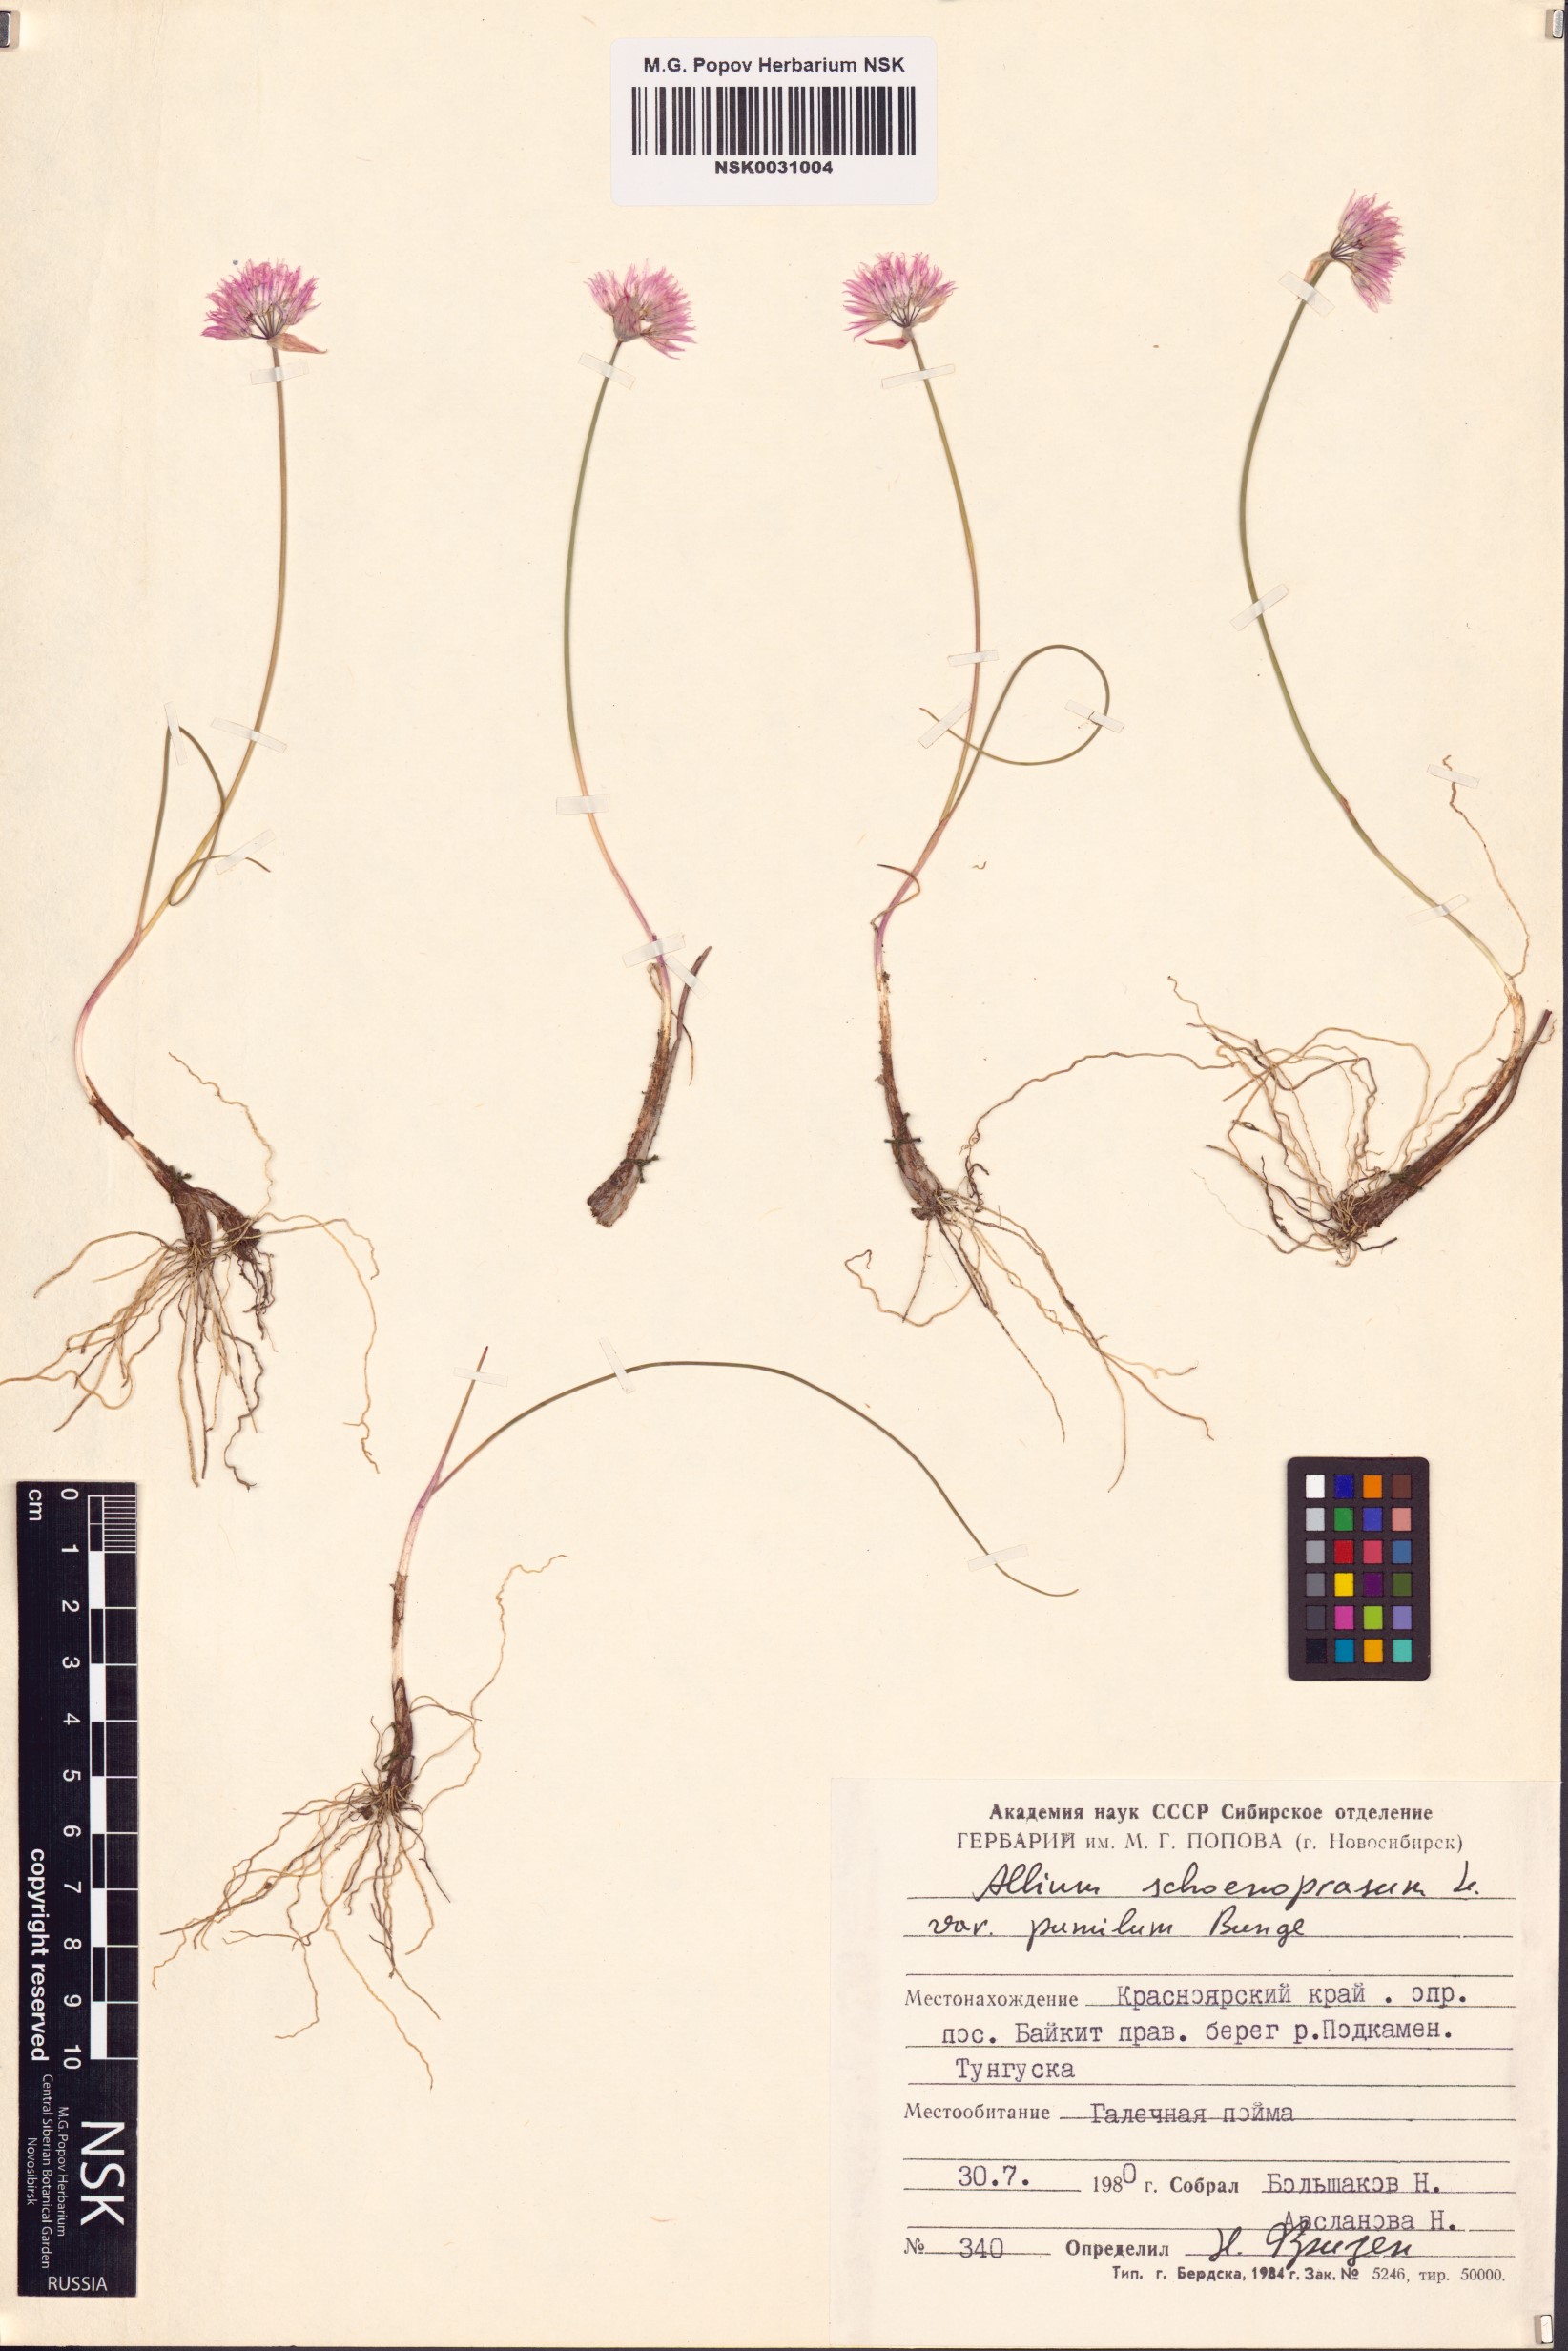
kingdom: Plantae
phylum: Tracheophyta
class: Liliopsida
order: Asparagales
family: Amaryllidaceae
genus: Allium
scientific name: Allium schoenoprasum
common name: Chives
